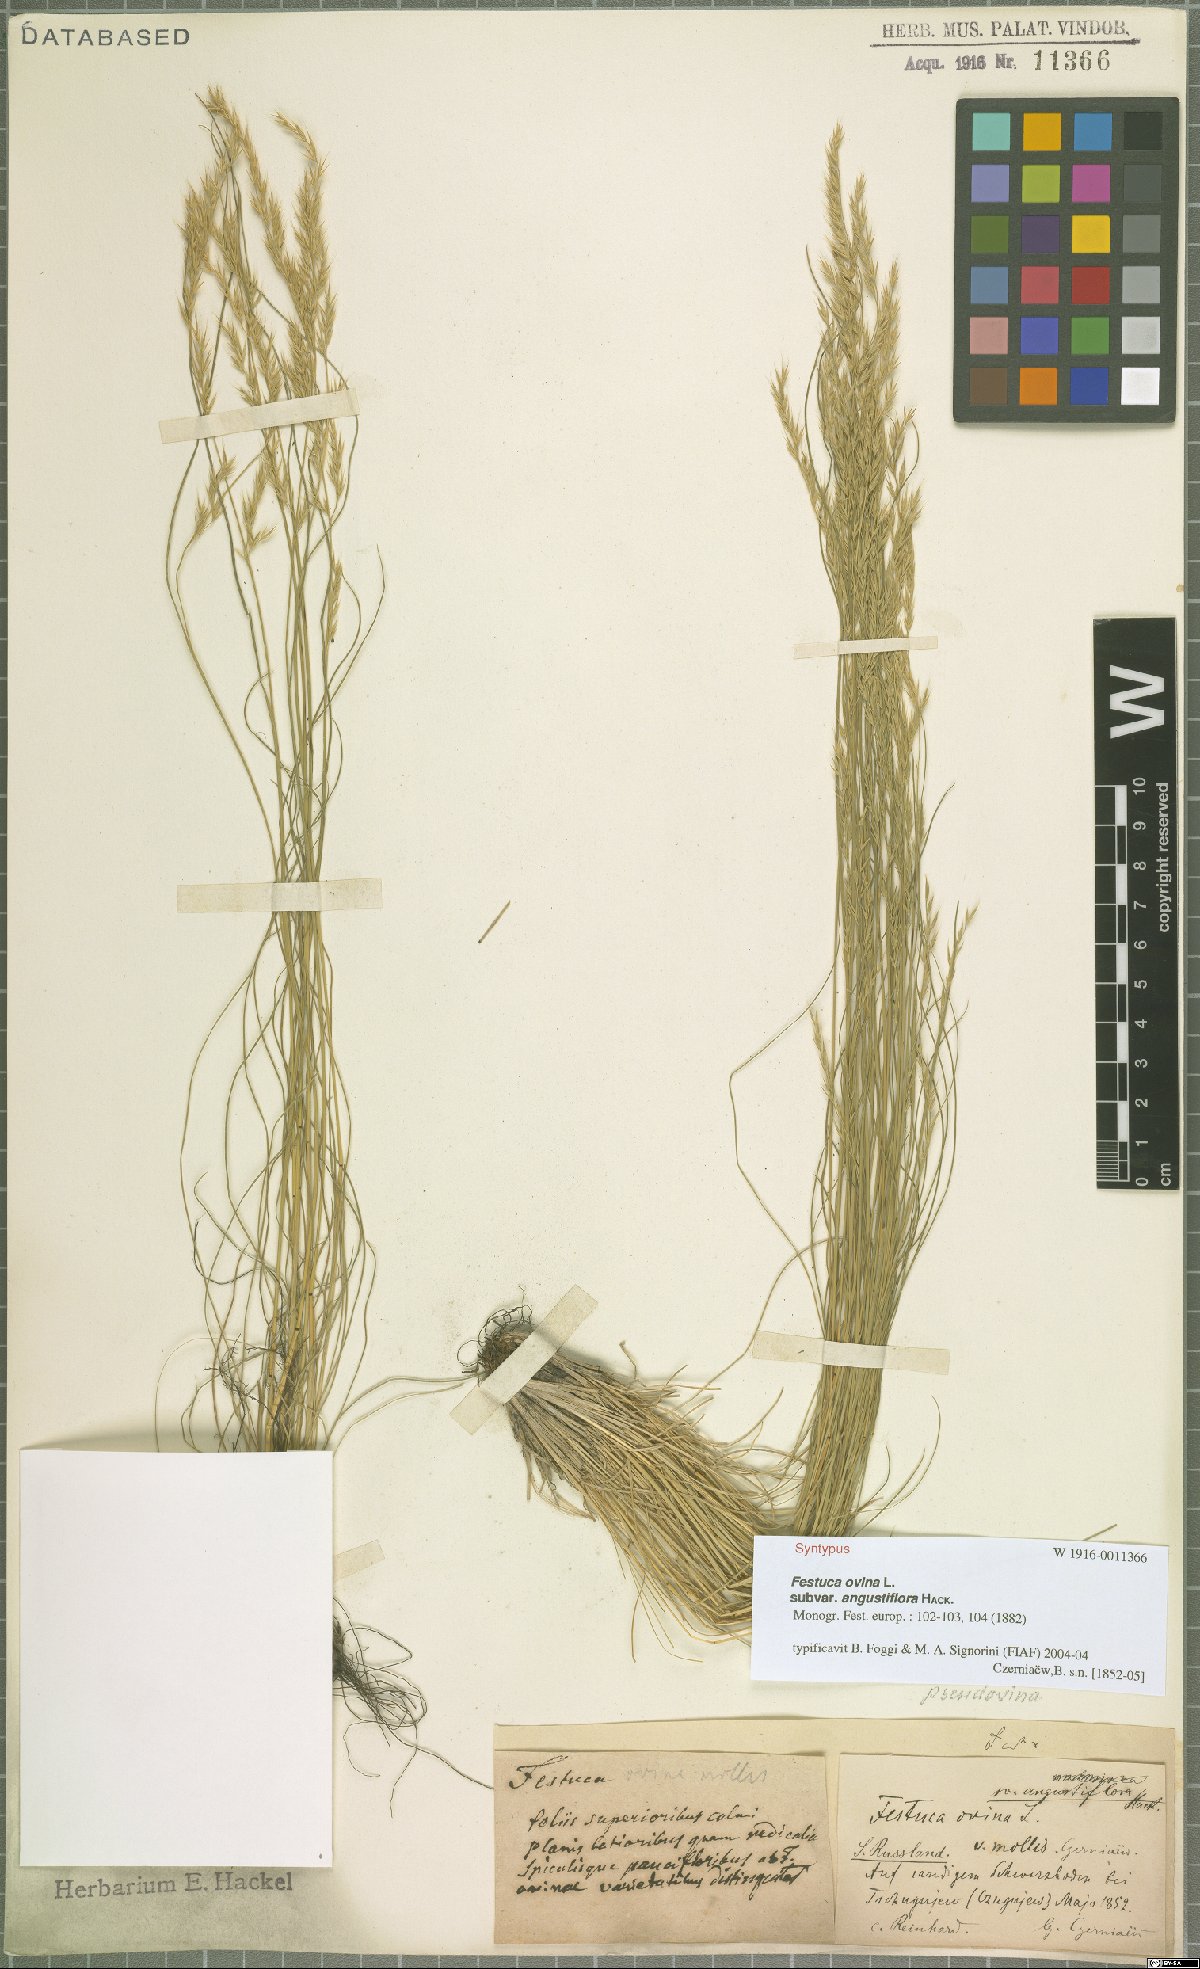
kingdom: Plantae
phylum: Tracheophyta
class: Liliopsida
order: Poales
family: Poaceae
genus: Festuca
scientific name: Festuca ovina
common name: Sheep fescue
